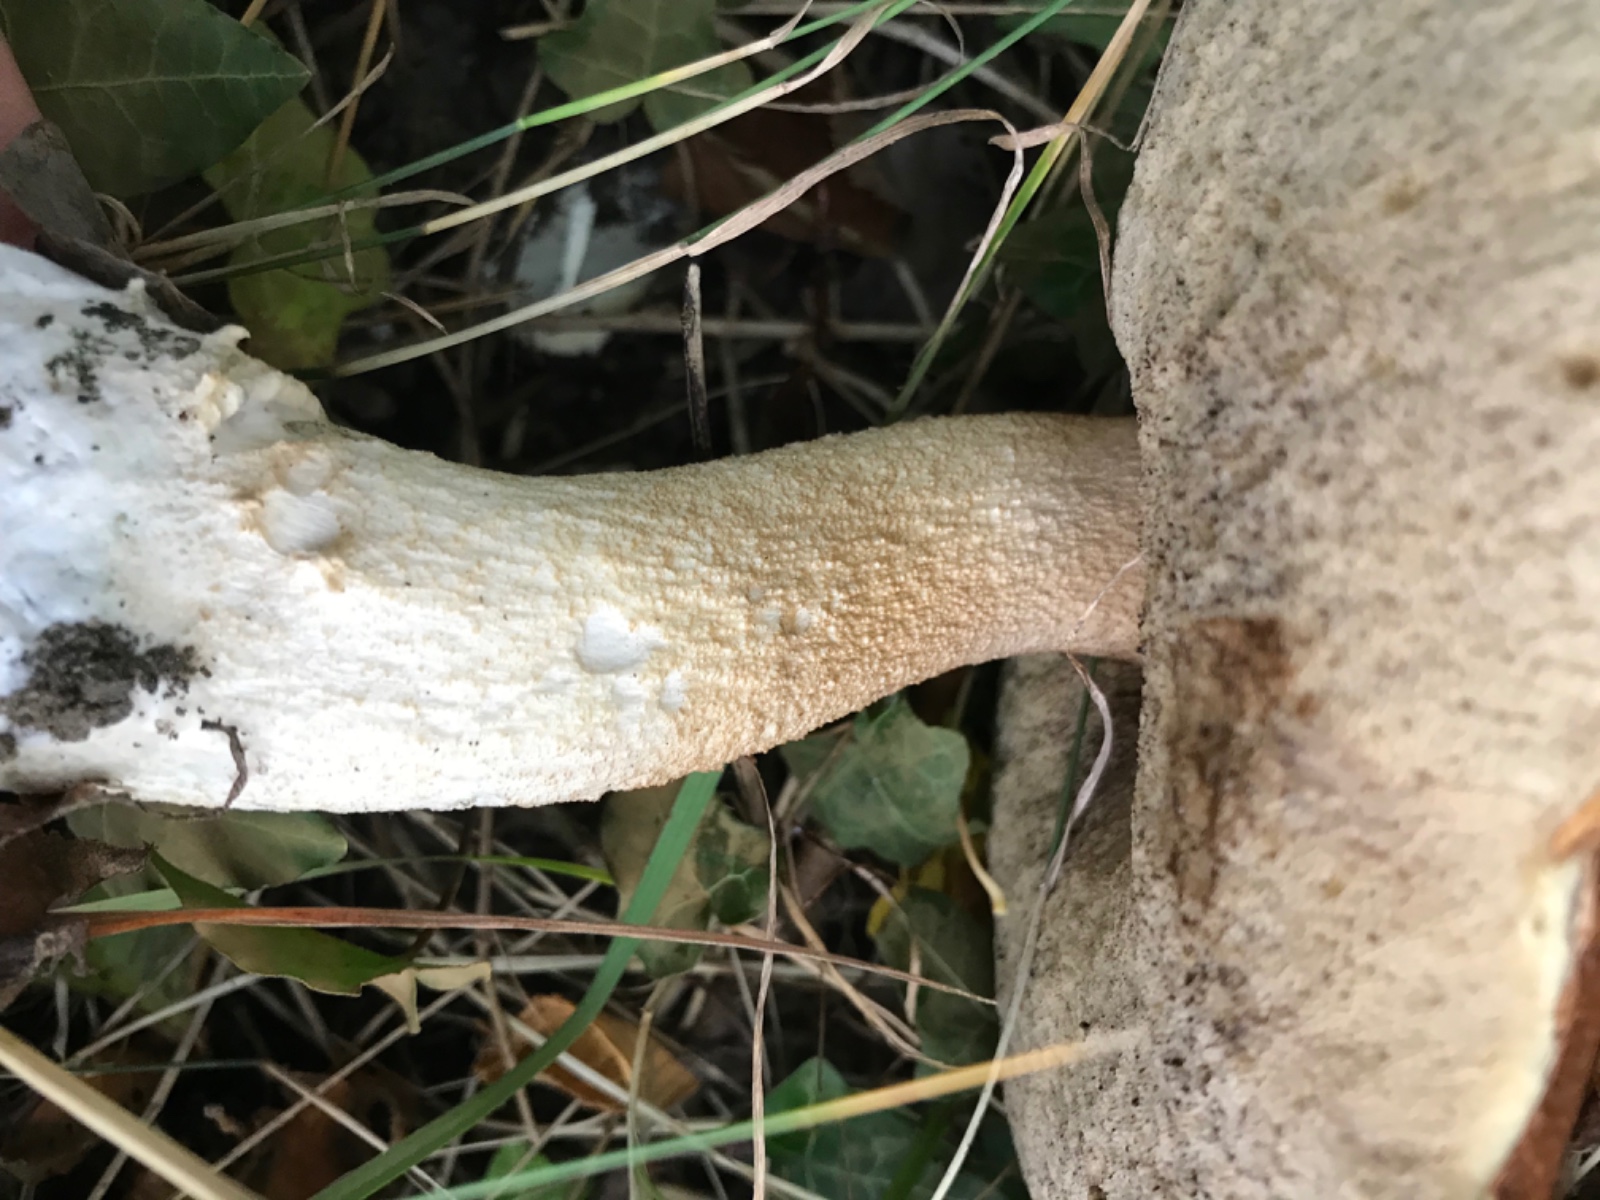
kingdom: Fungi
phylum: Basidiomycota
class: Agaricomycetes
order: Boletales
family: Boletaceae
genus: Leccinum
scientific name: Leccinum albostipitatum
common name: aspe-skælrørhat
